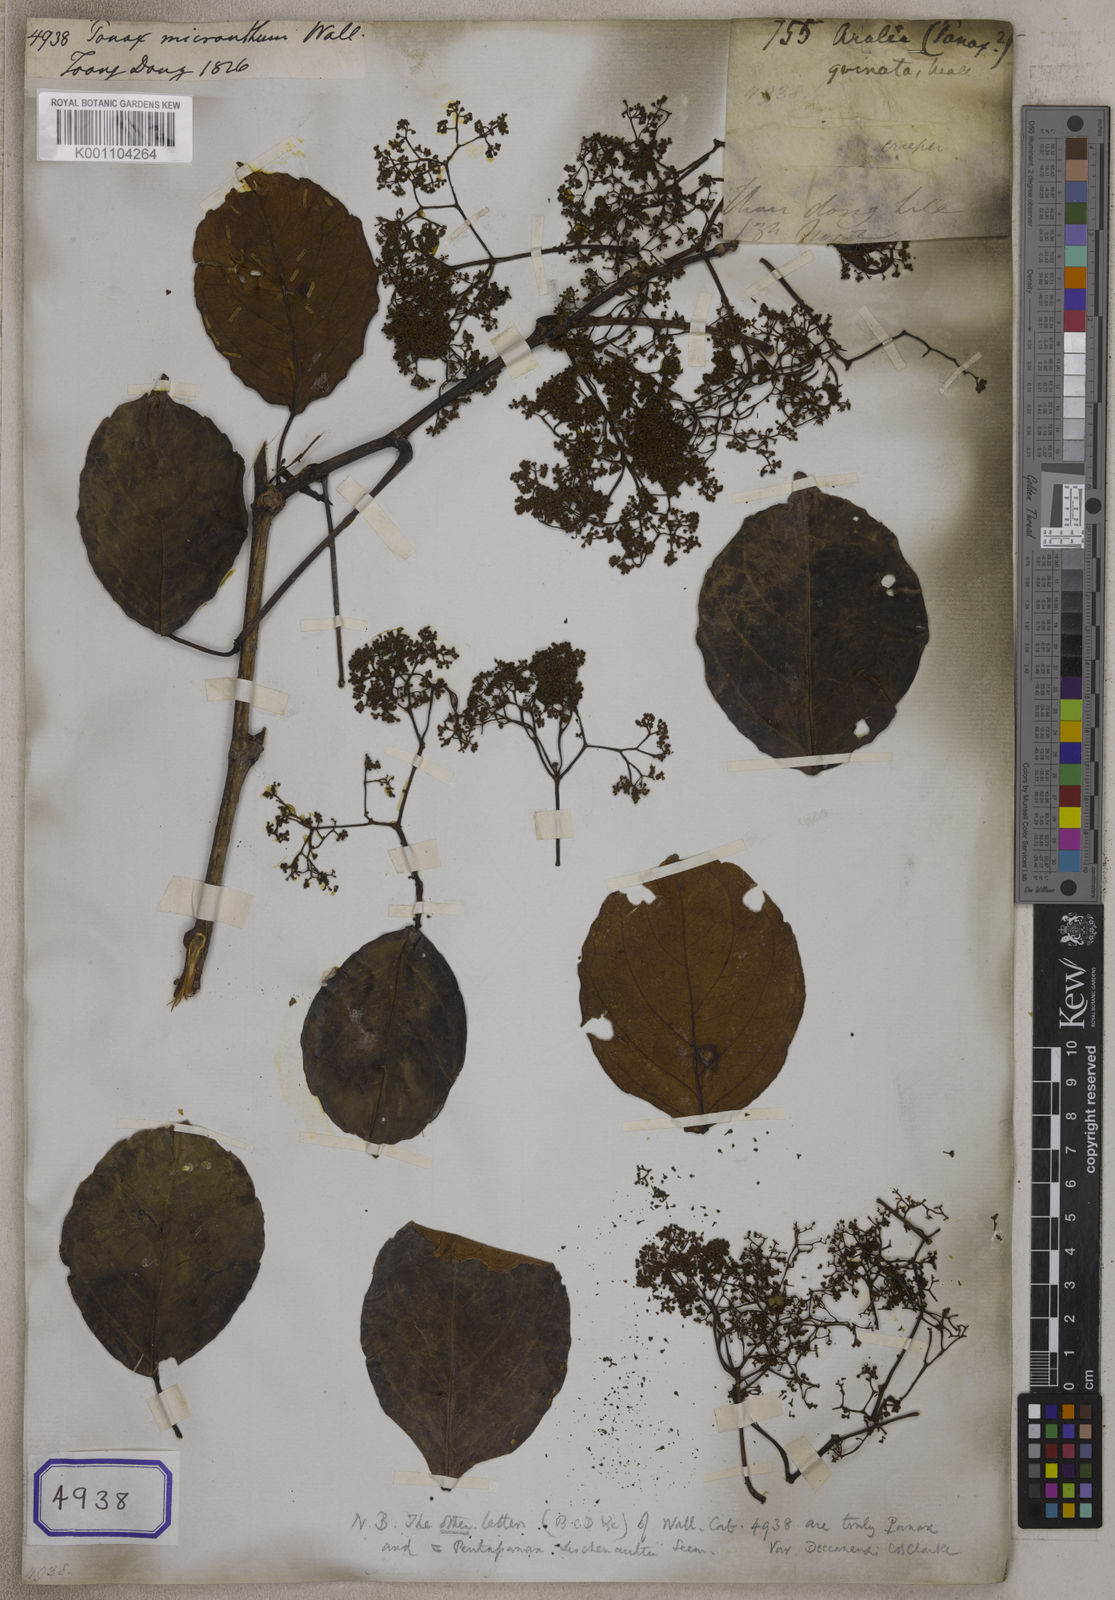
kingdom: Plantae
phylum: Tracheophyta
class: Magnoliopsida
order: Apiales
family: Araliaceae
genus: Panax
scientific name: Panax
